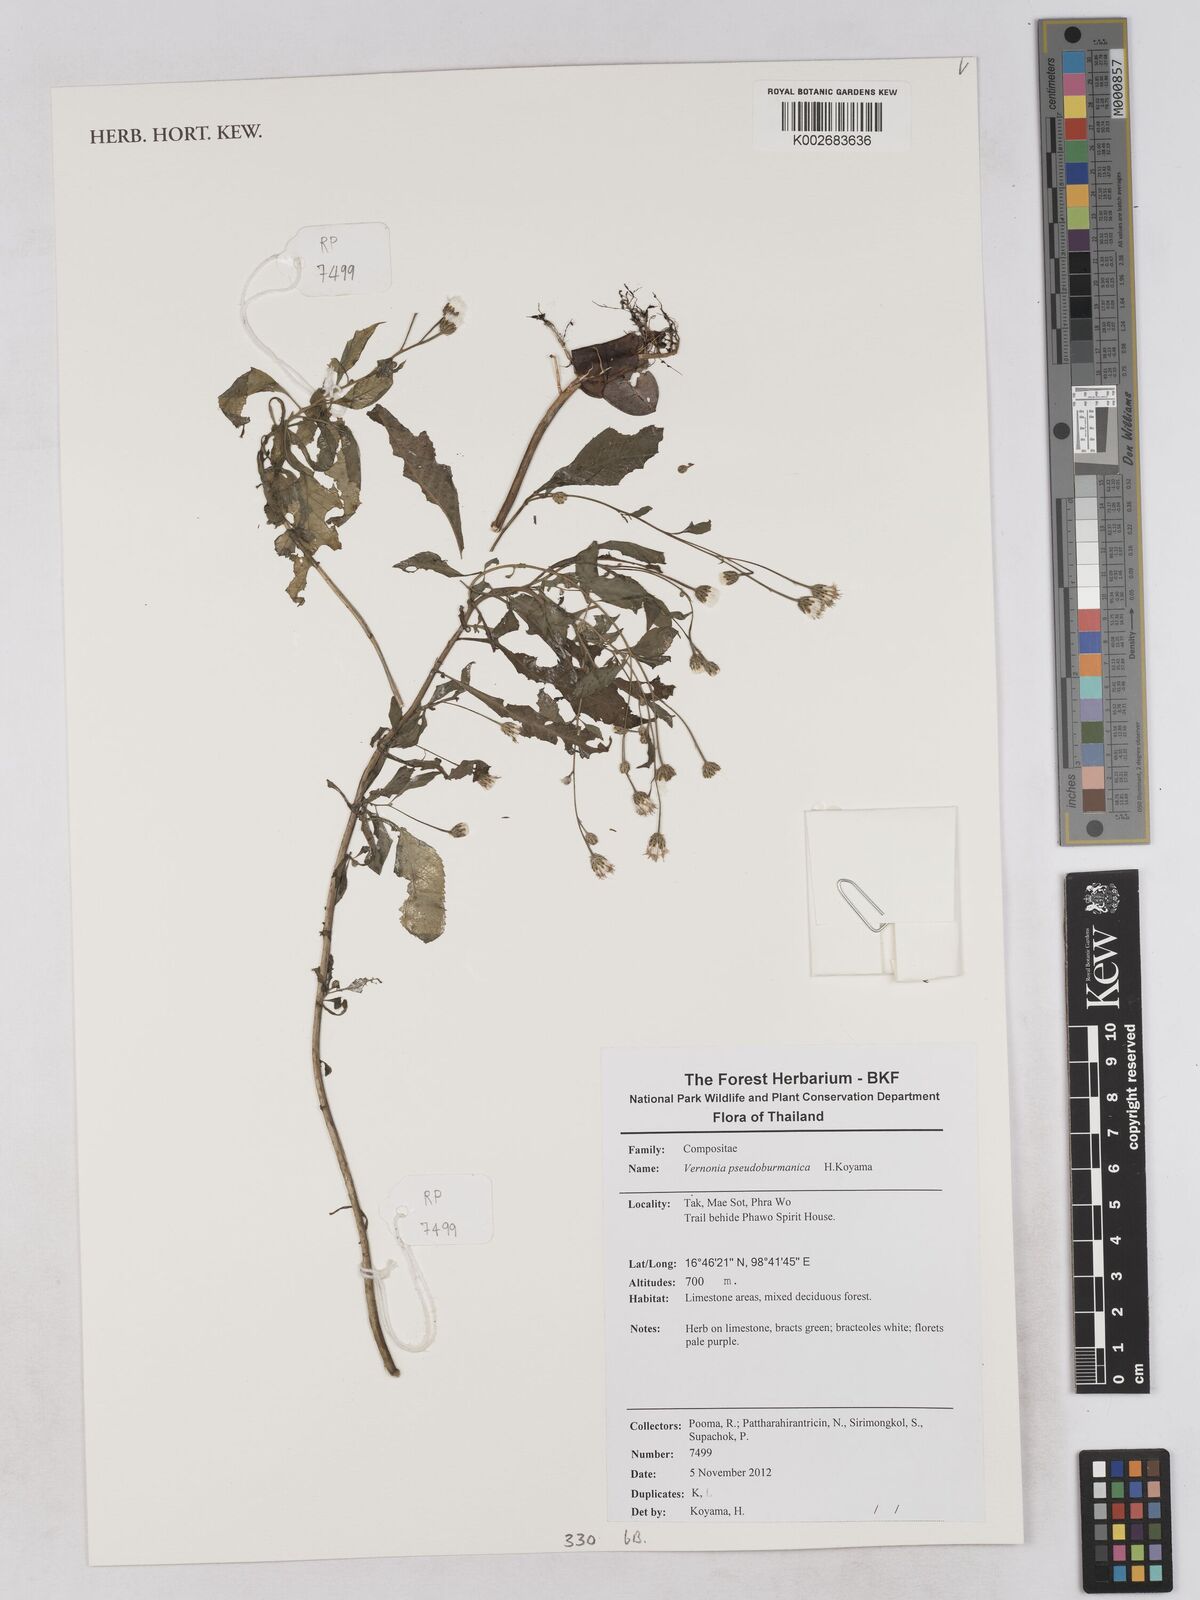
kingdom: Plantae
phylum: Tracheophyta
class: Magnoliopsida
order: Asterales
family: Asteraceae
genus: Okia
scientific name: Okia pseudobirmanica
